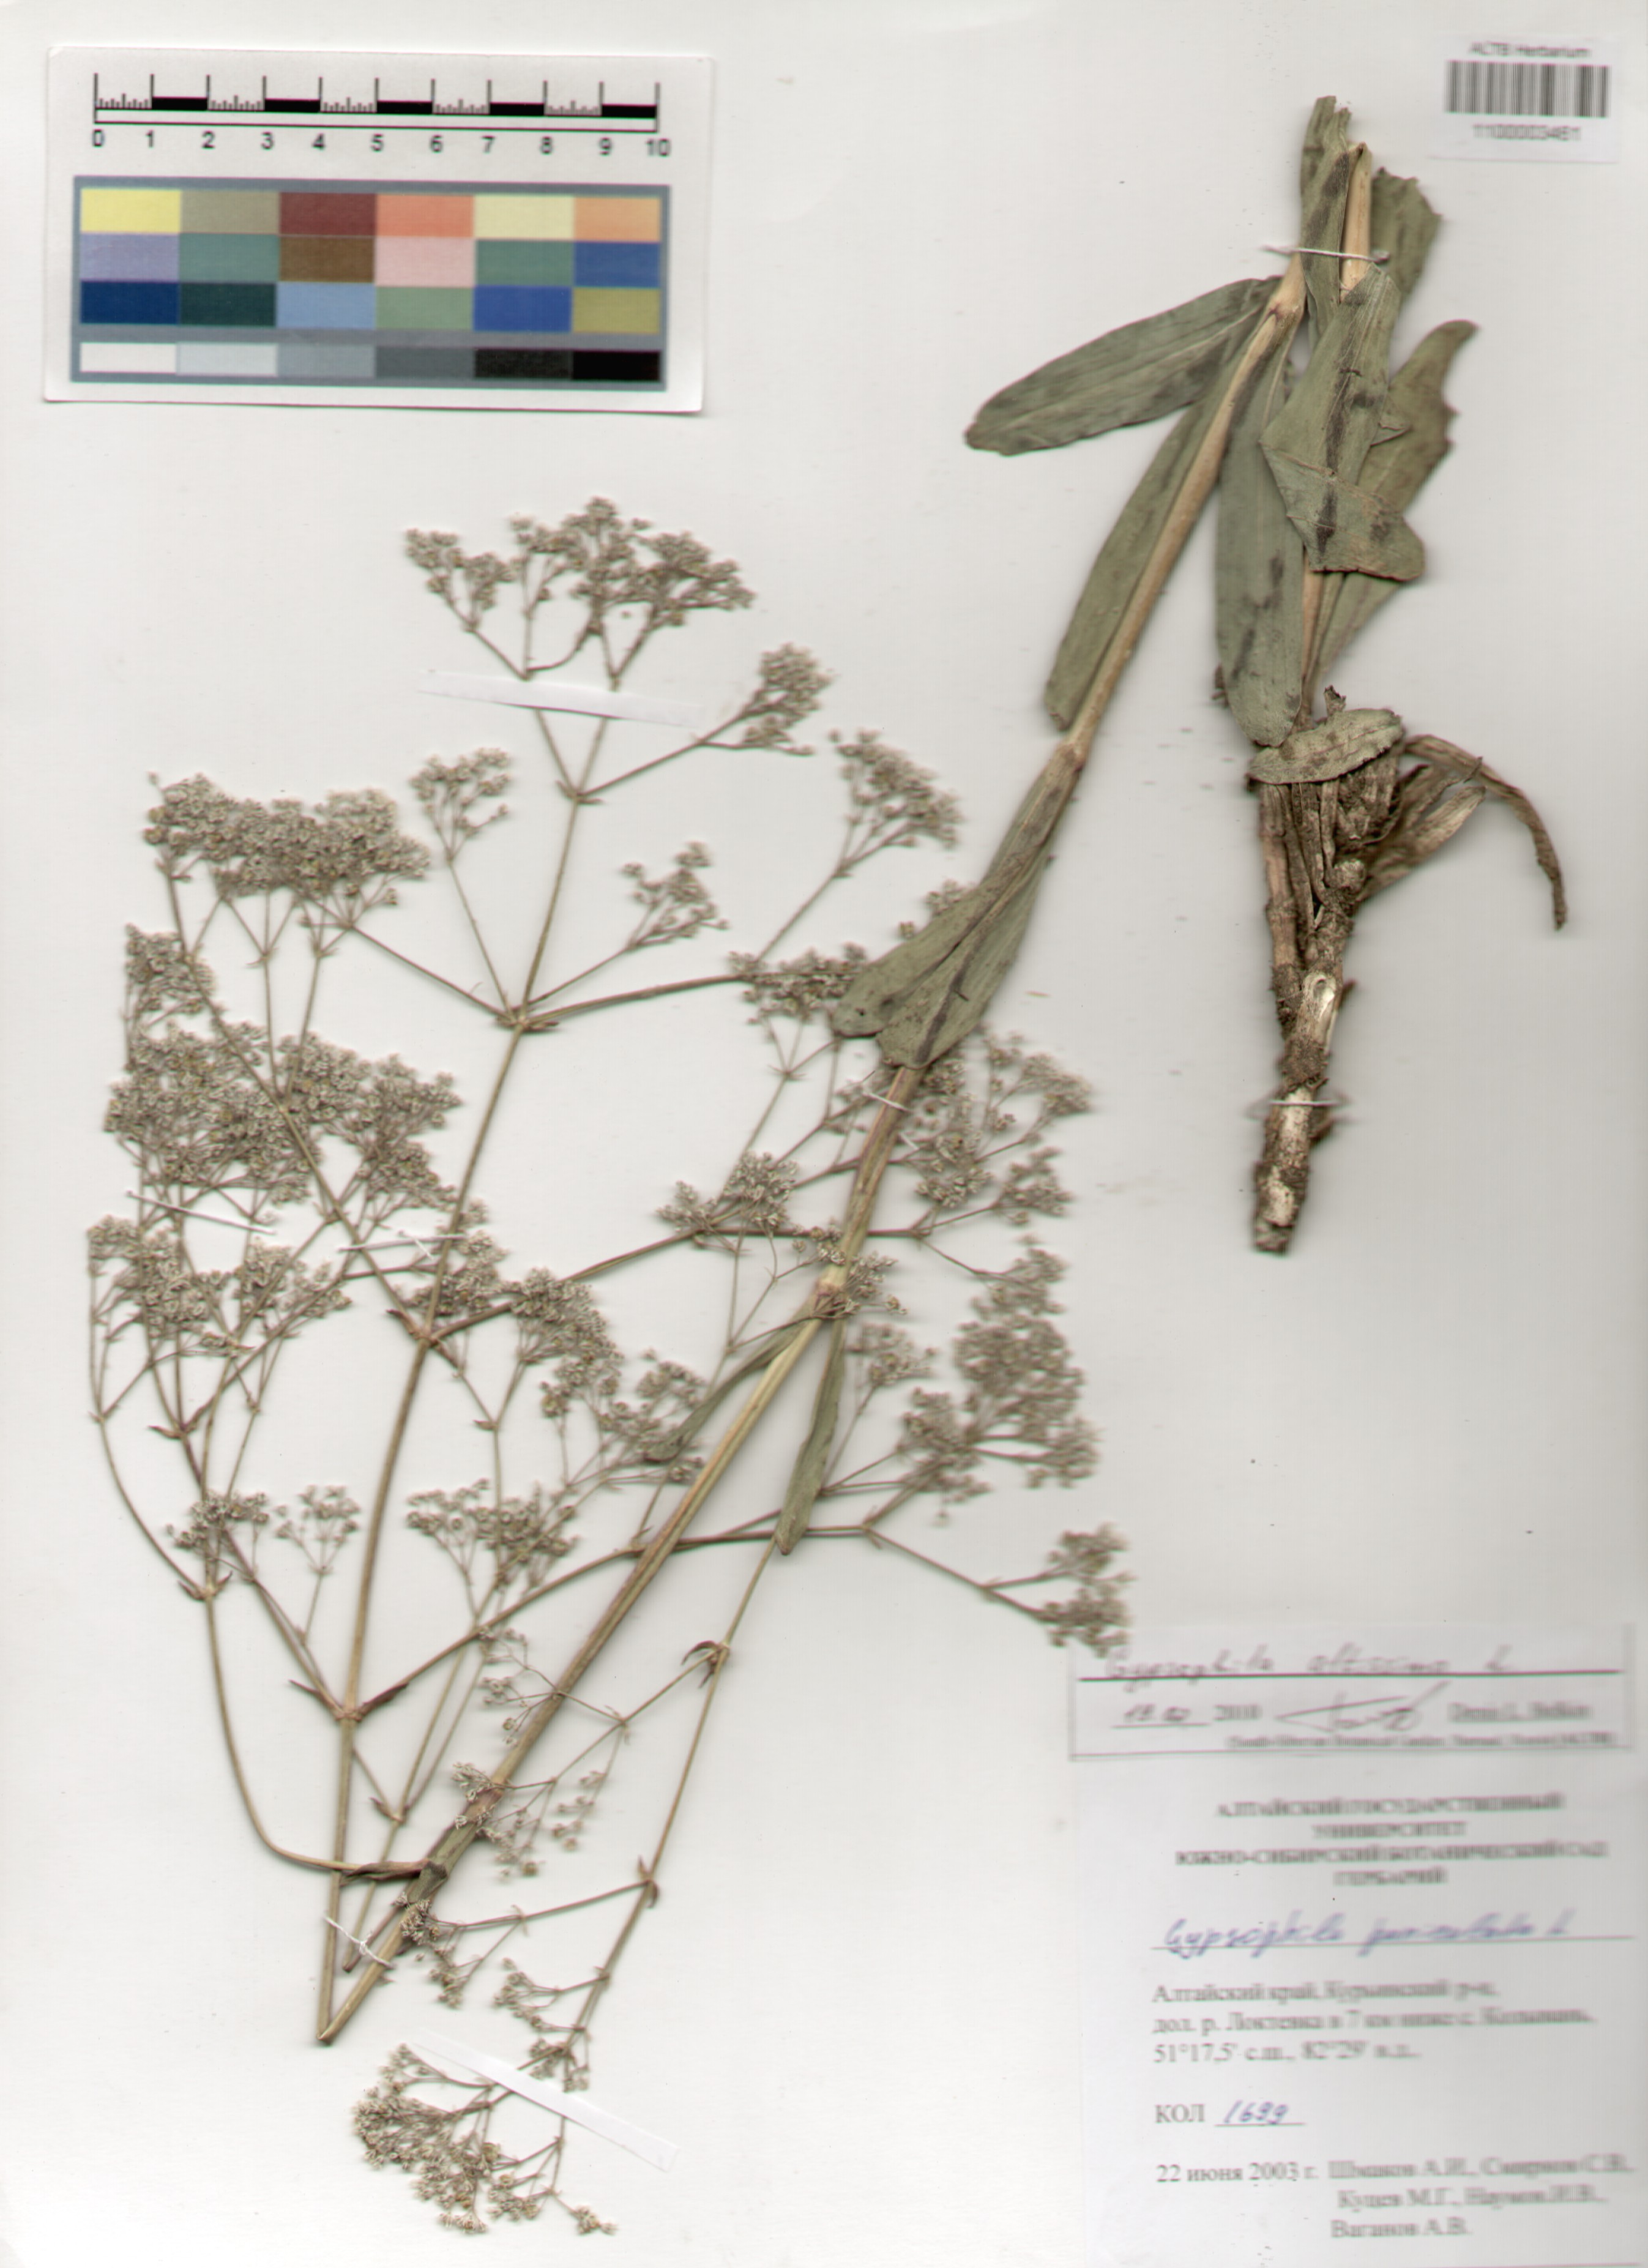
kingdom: Plantae
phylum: Tracheophyta
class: Magnoliopsida
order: Caryophyllales
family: Caryophyllaceae
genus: Gypsophila
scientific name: Gypsophila altissima
